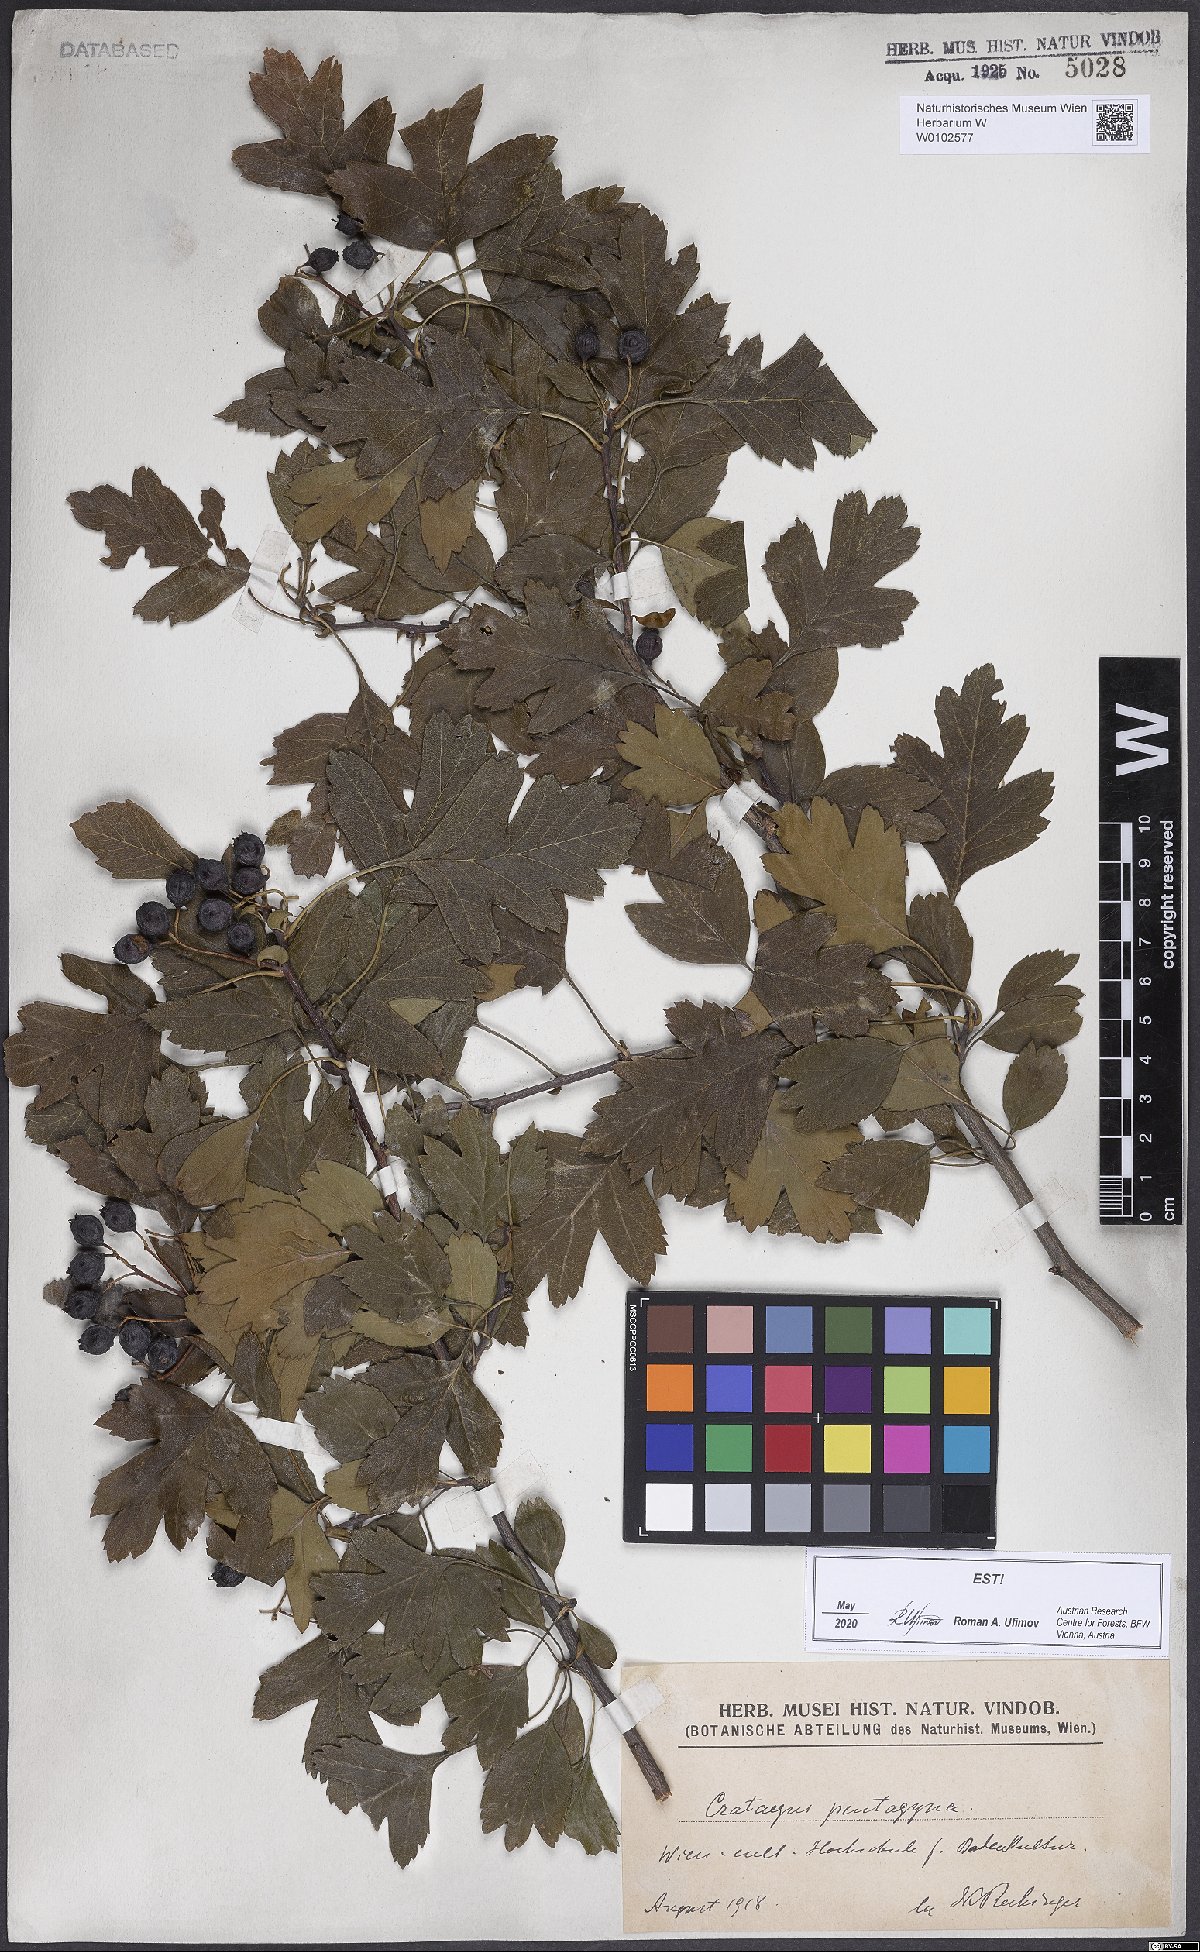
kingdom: Plantae
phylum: Tracheophyta
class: Magnoliopsida
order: Rosales
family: Rosaceae
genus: Crataegus
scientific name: Crataegus pentagyna
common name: Small-flowered black hawthorn
